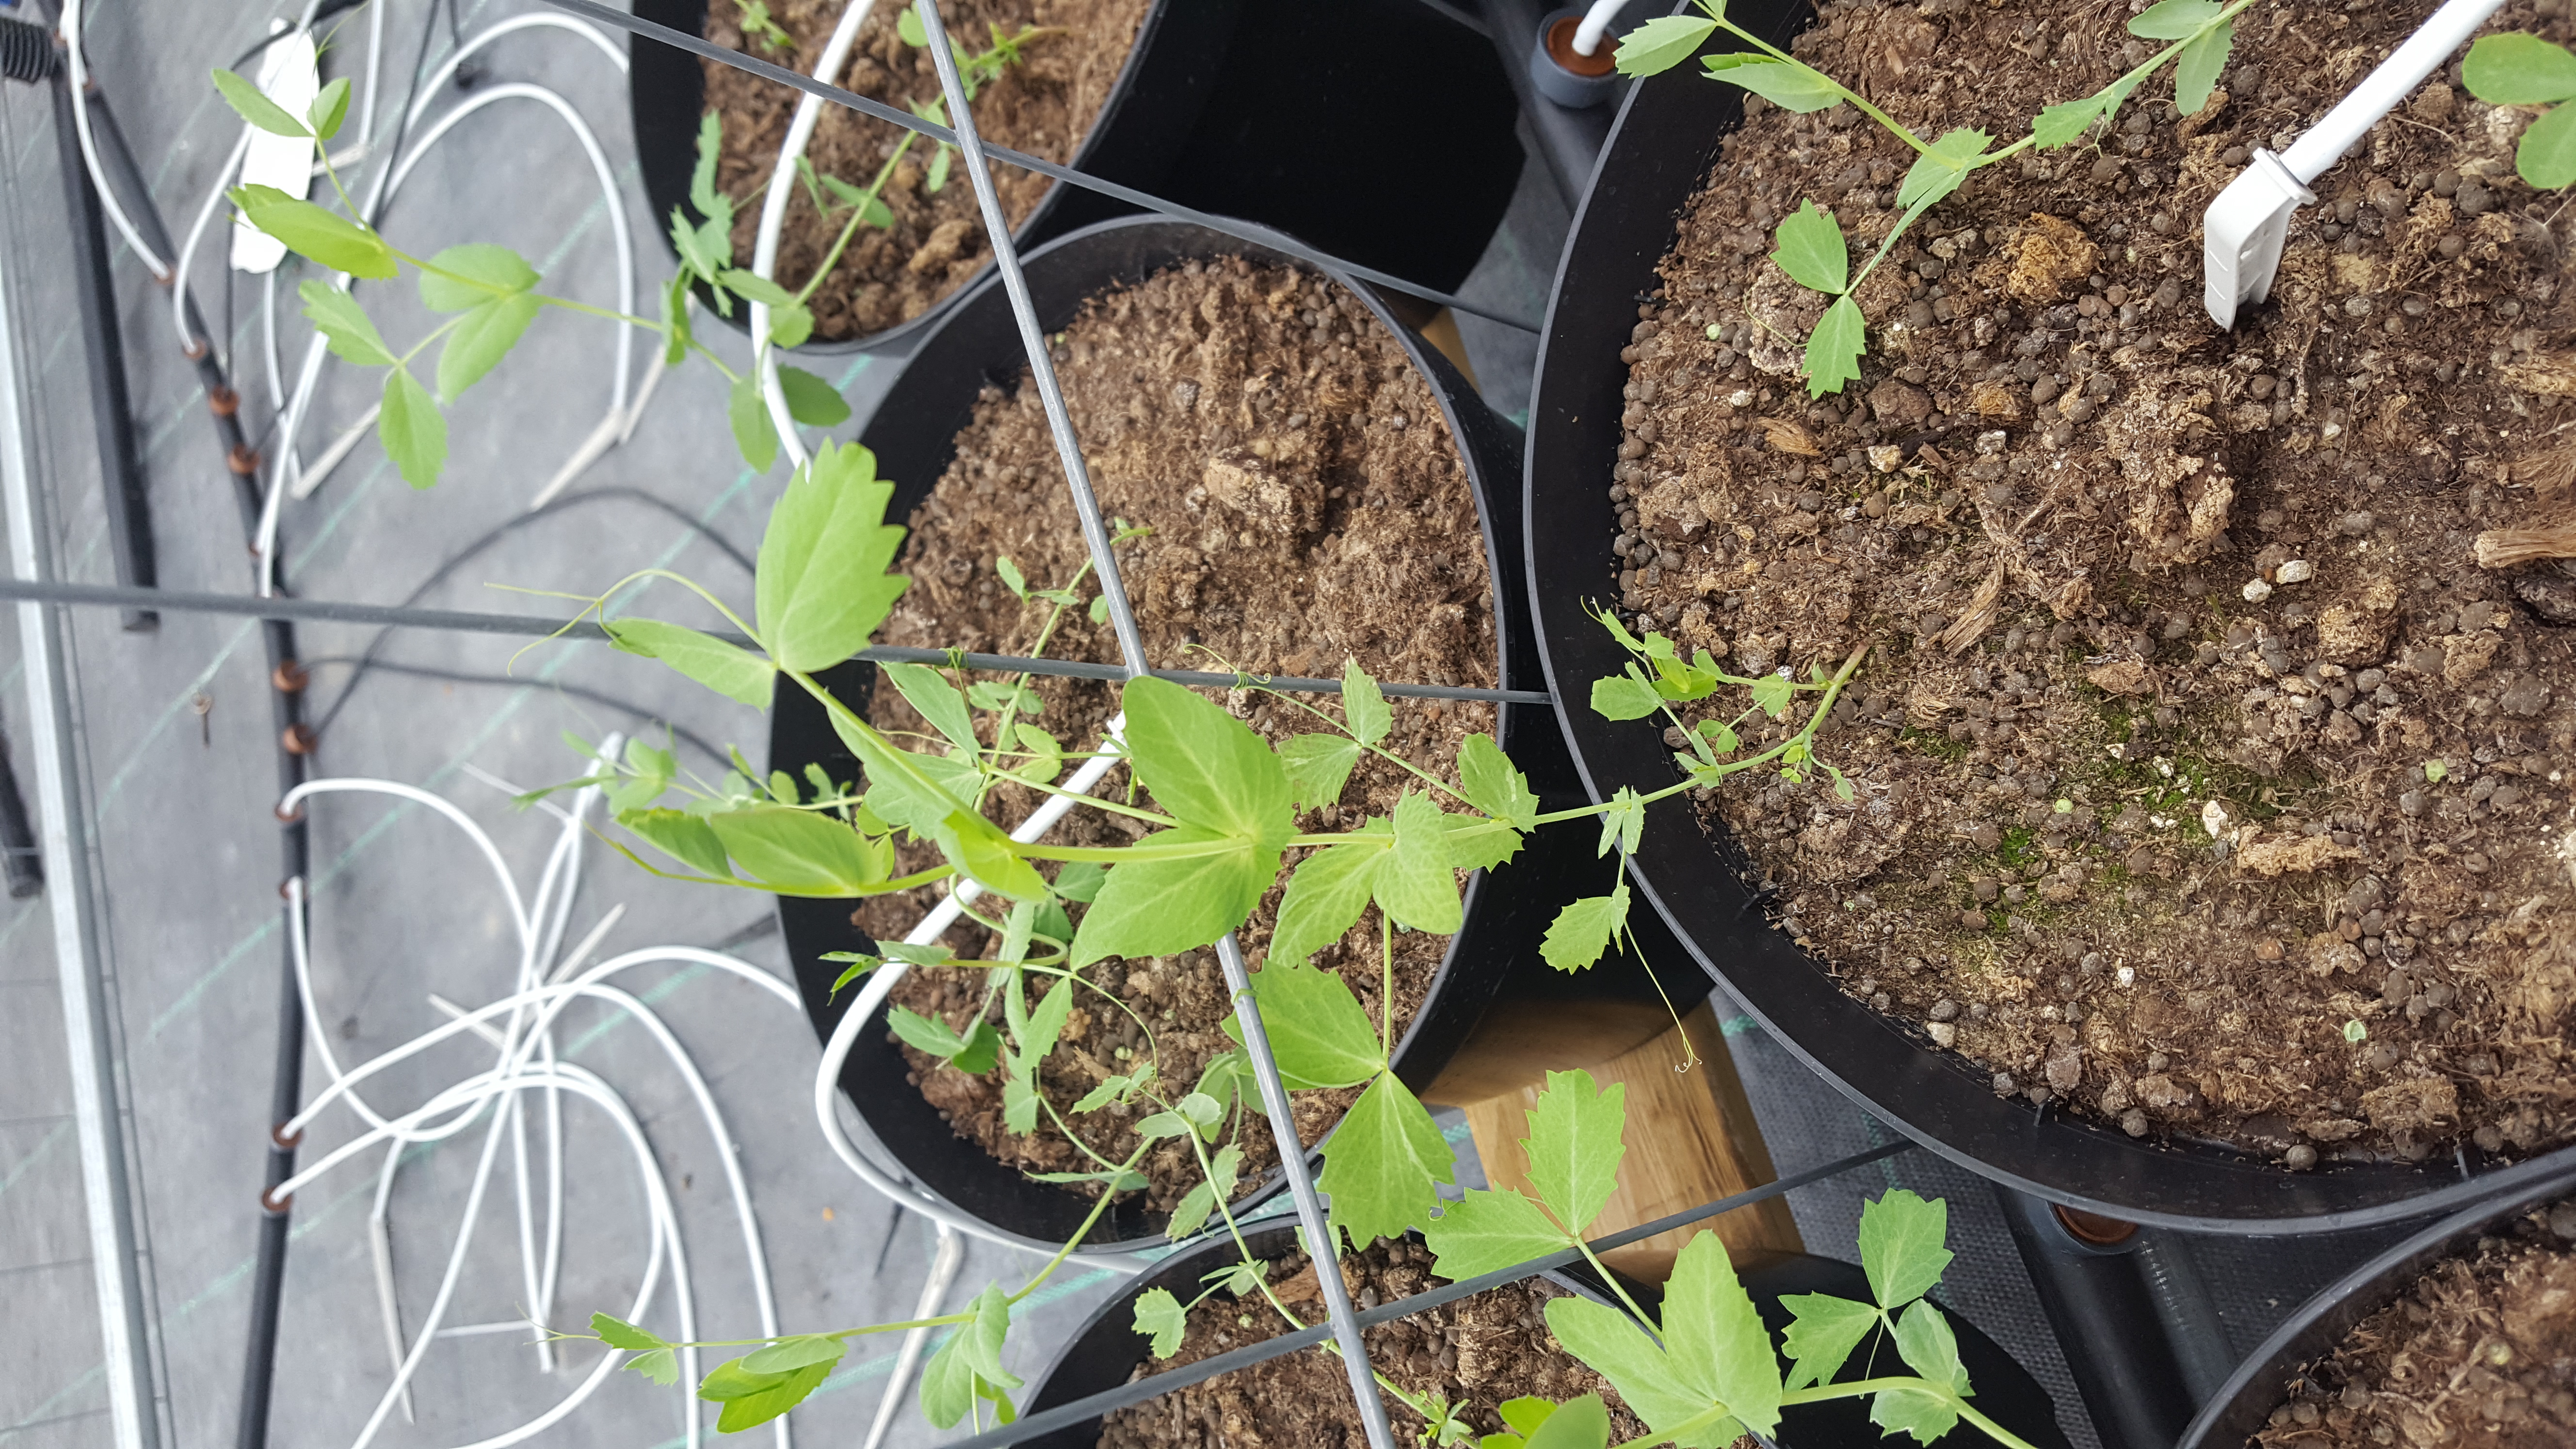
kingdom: Plantae
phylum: Tracheophyta
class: Magnoliopsida
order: Fabales
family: Fabaceae
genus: Lathyrus
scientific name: Lathyrus oleraceus
